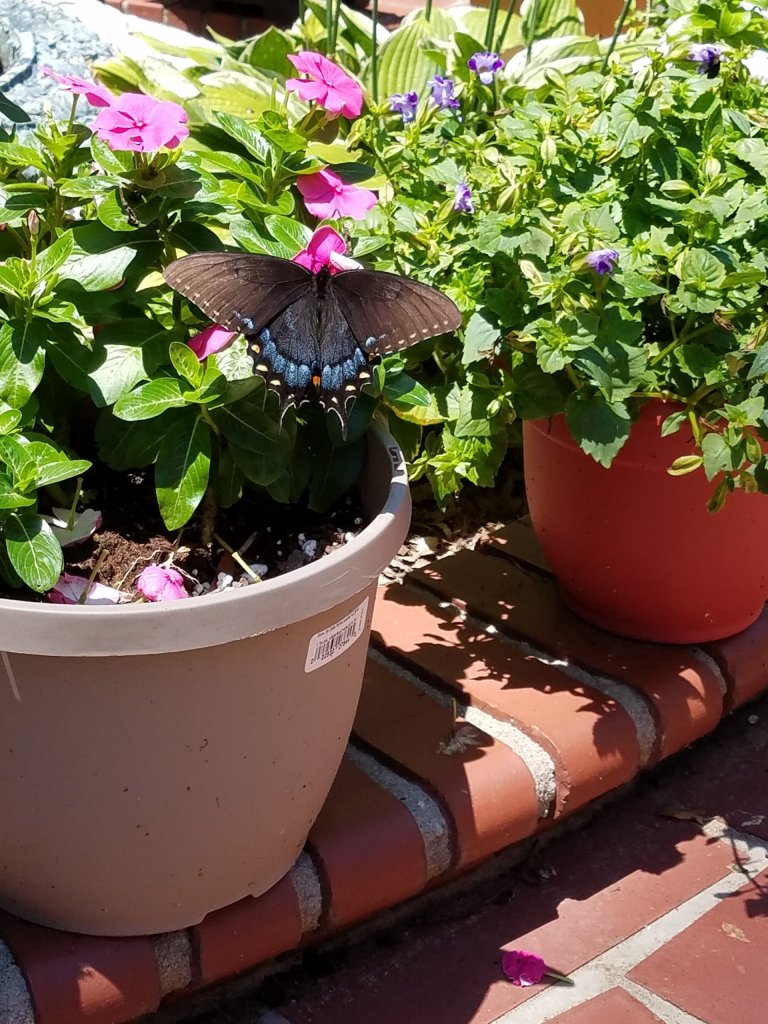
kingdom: Animalia
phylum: Arthropoda
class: Insecta
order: Lepidoptera
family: Papilionidae
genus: Pterourus
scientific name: Pterourus troilus
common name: Spicebush Swallowtail
